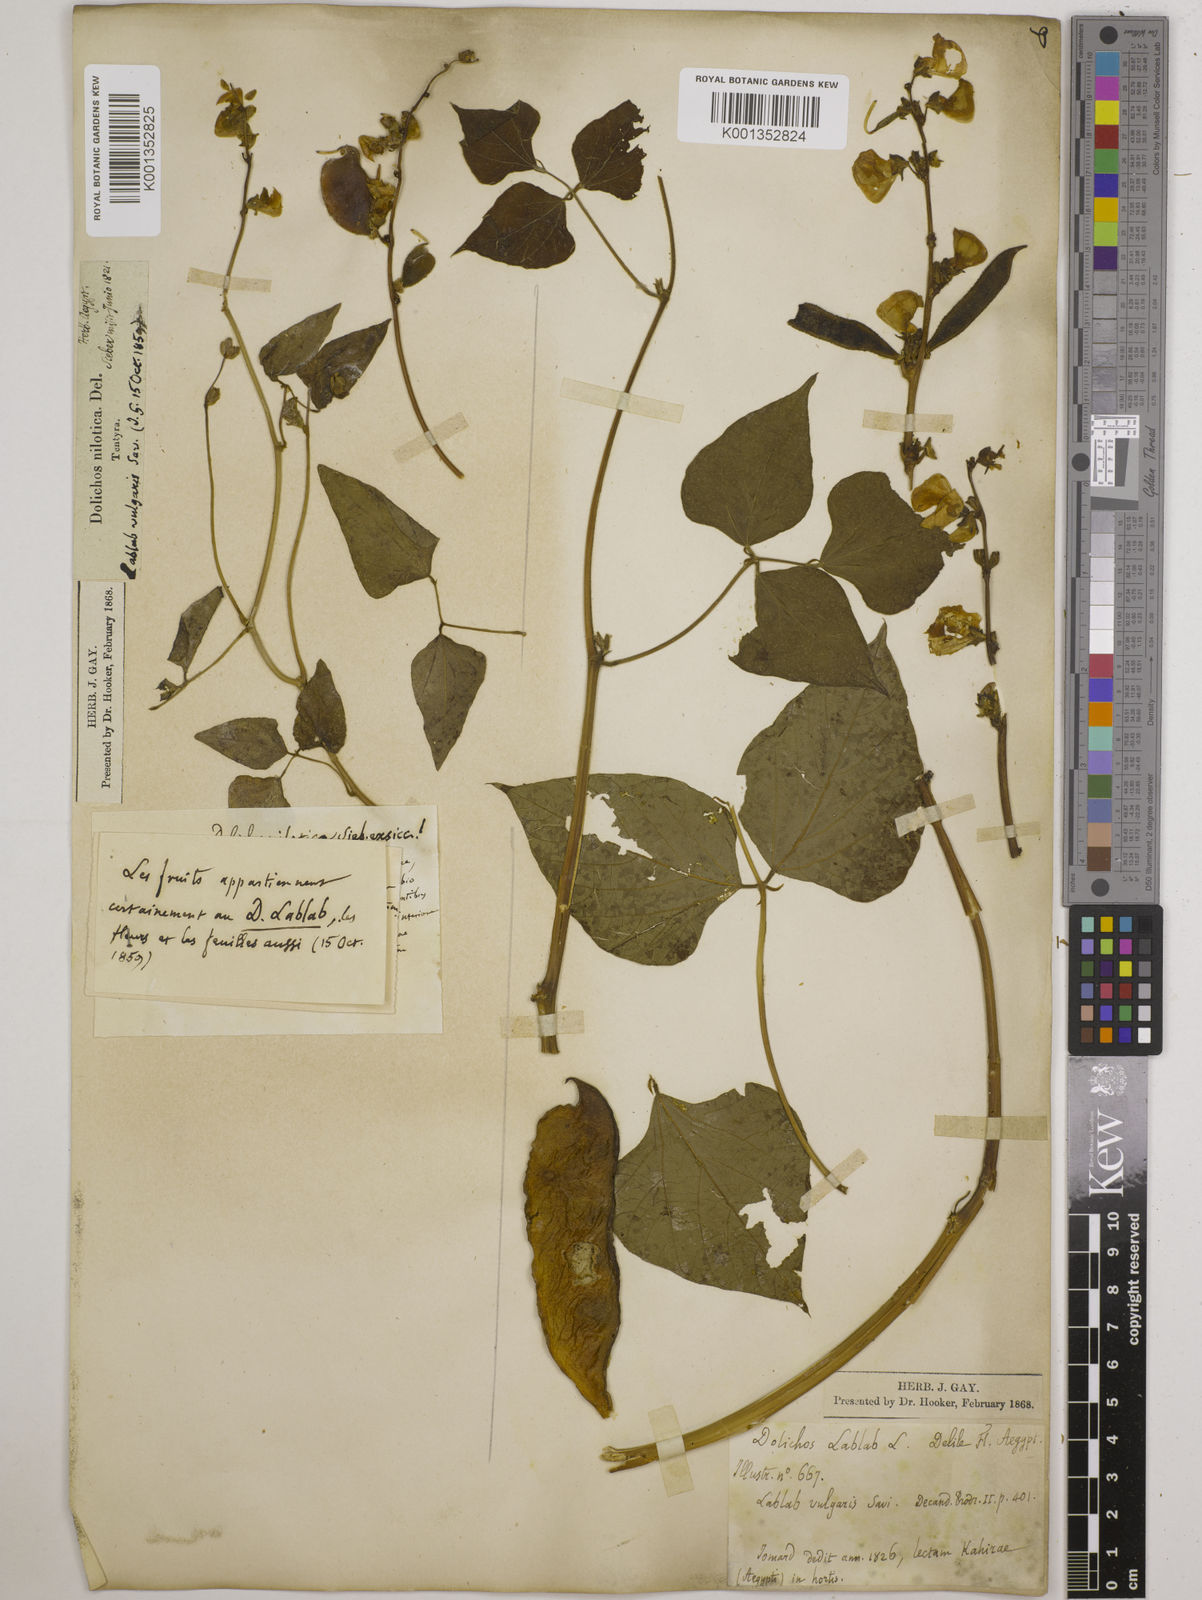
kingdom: Plantae
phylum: Tracheophyta
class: Magnoliopsida
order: Fabales
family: Fabaceae
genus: Lablab
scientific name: Lablab purpureus
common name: Lablab-bean
